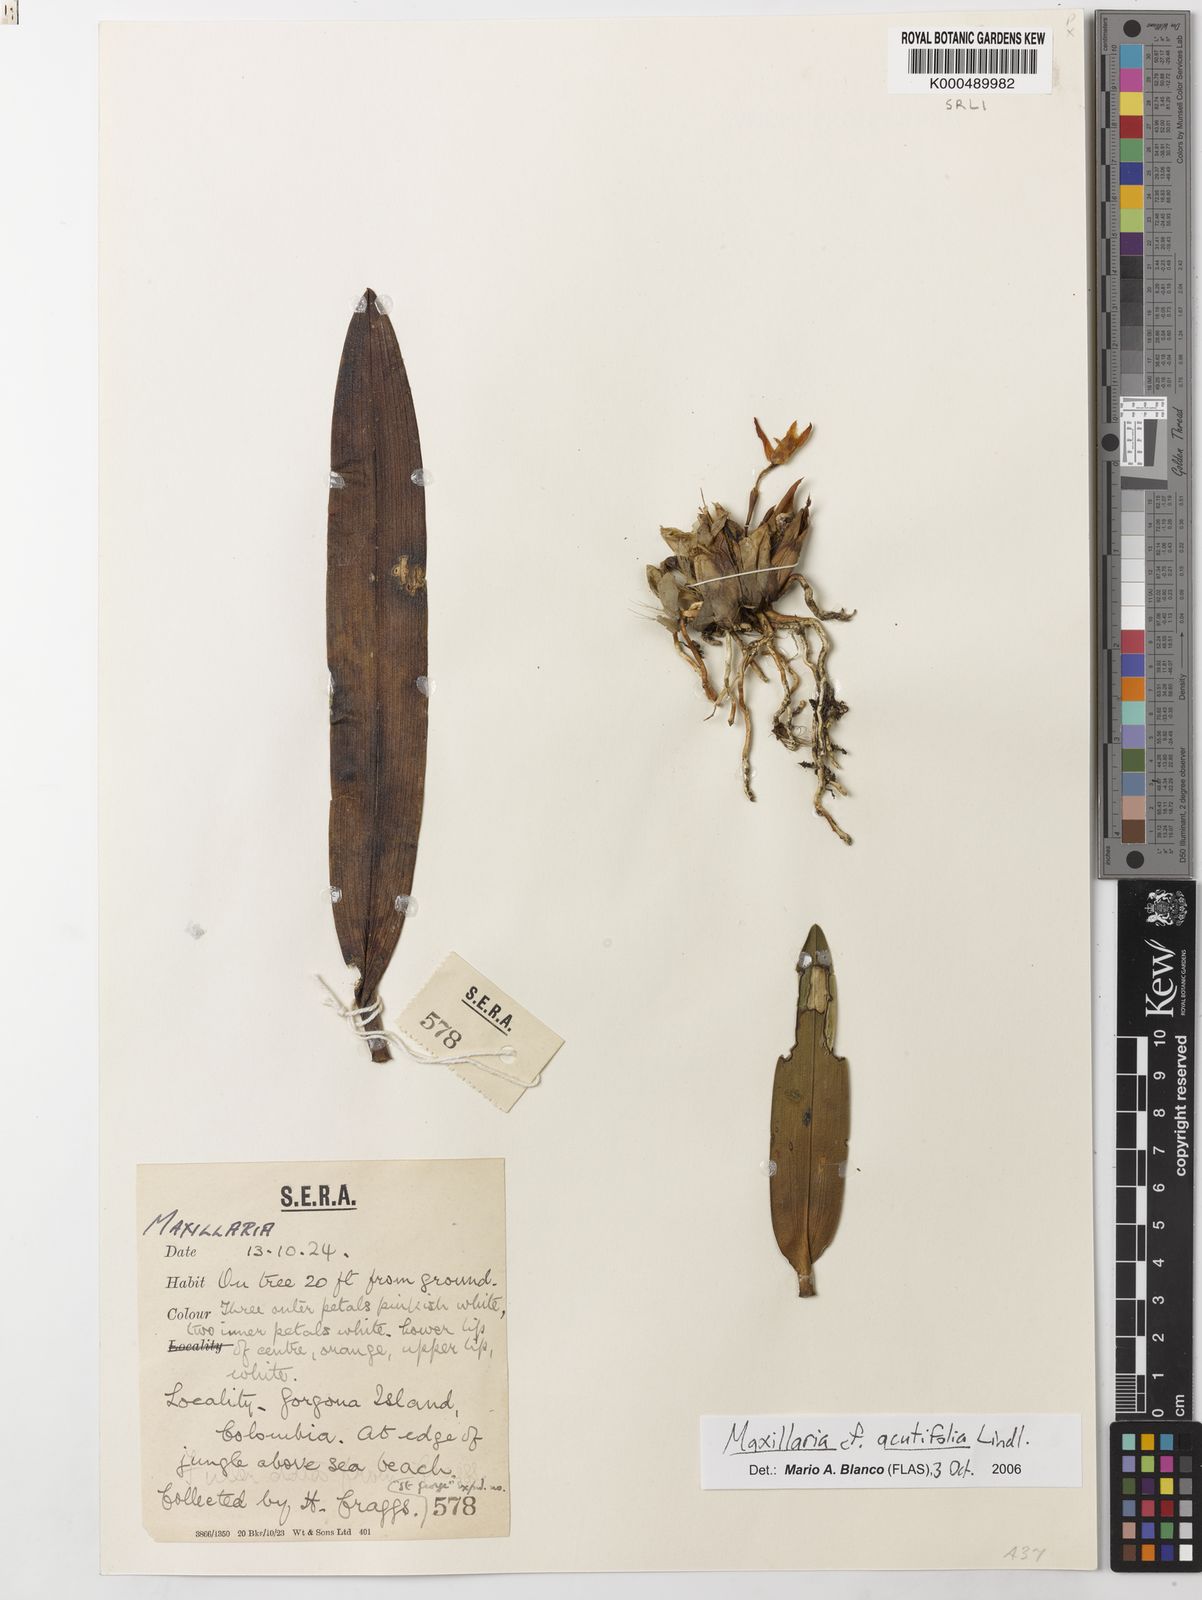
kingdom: Plantae
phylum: Tracheophyta
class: Liliopsida
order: Asparagales
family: Orchidaceae
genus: Maxillaria
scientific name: Maxillaria acutifolia
